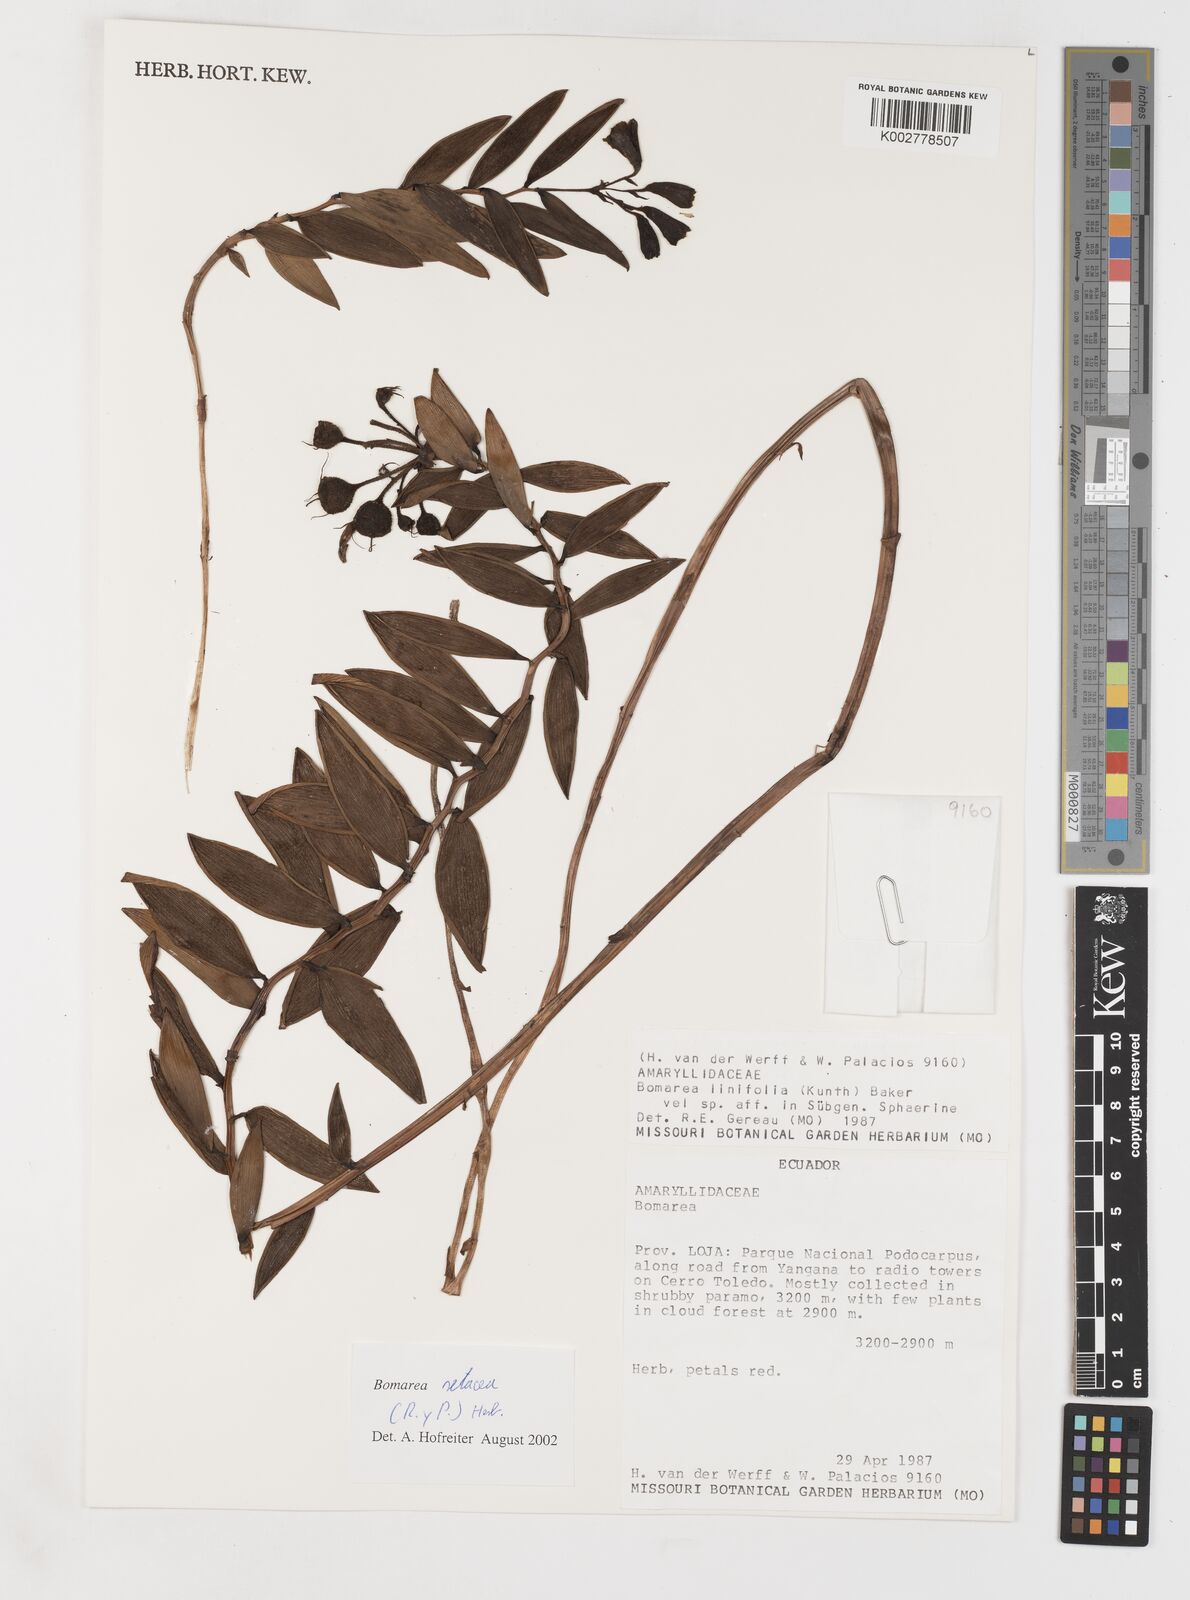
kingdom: Plantae
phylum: Tracheophyta
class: Liliopsida
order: Liliales
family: Alstroemeriaceae
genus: Bomarea
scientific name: Bomarea setacea
